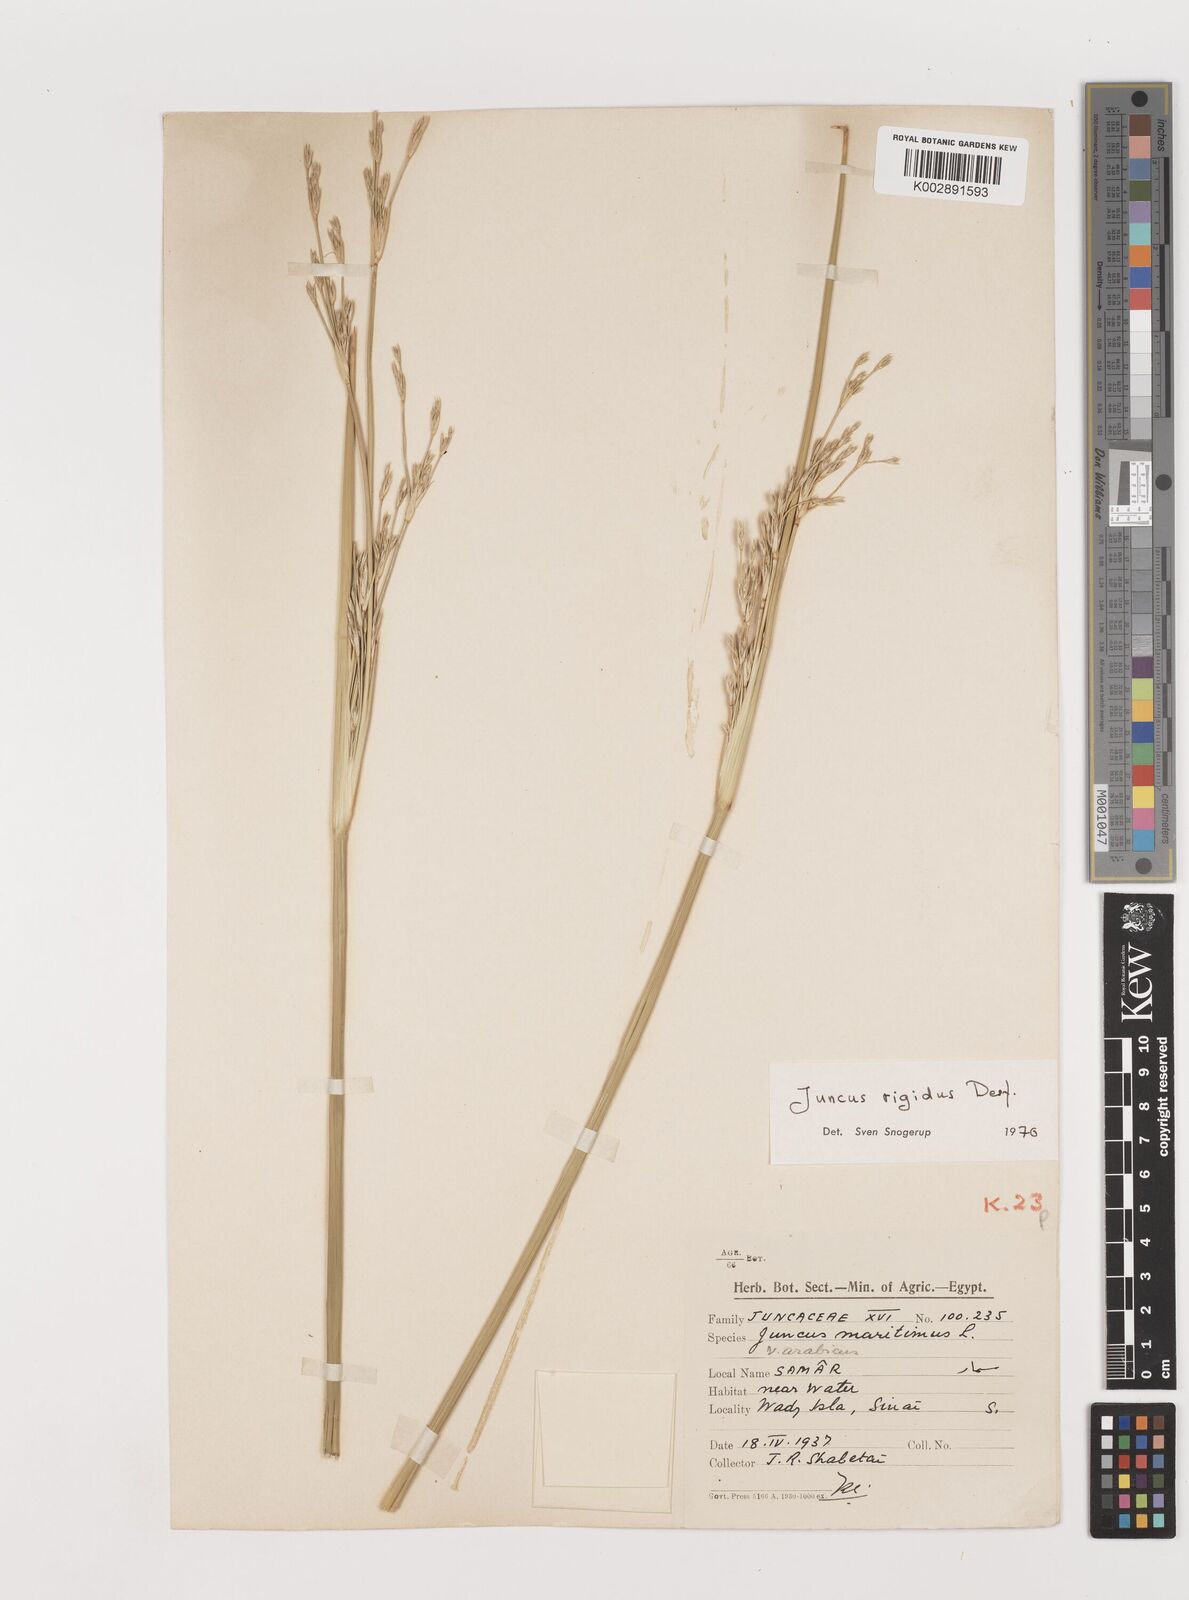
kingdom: Plantae
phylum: Tracheophyta
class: Liliopsida
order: Poales
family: Juncaceae
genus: Juncus
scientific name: Juncus rigidus
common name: Hard sea rush
